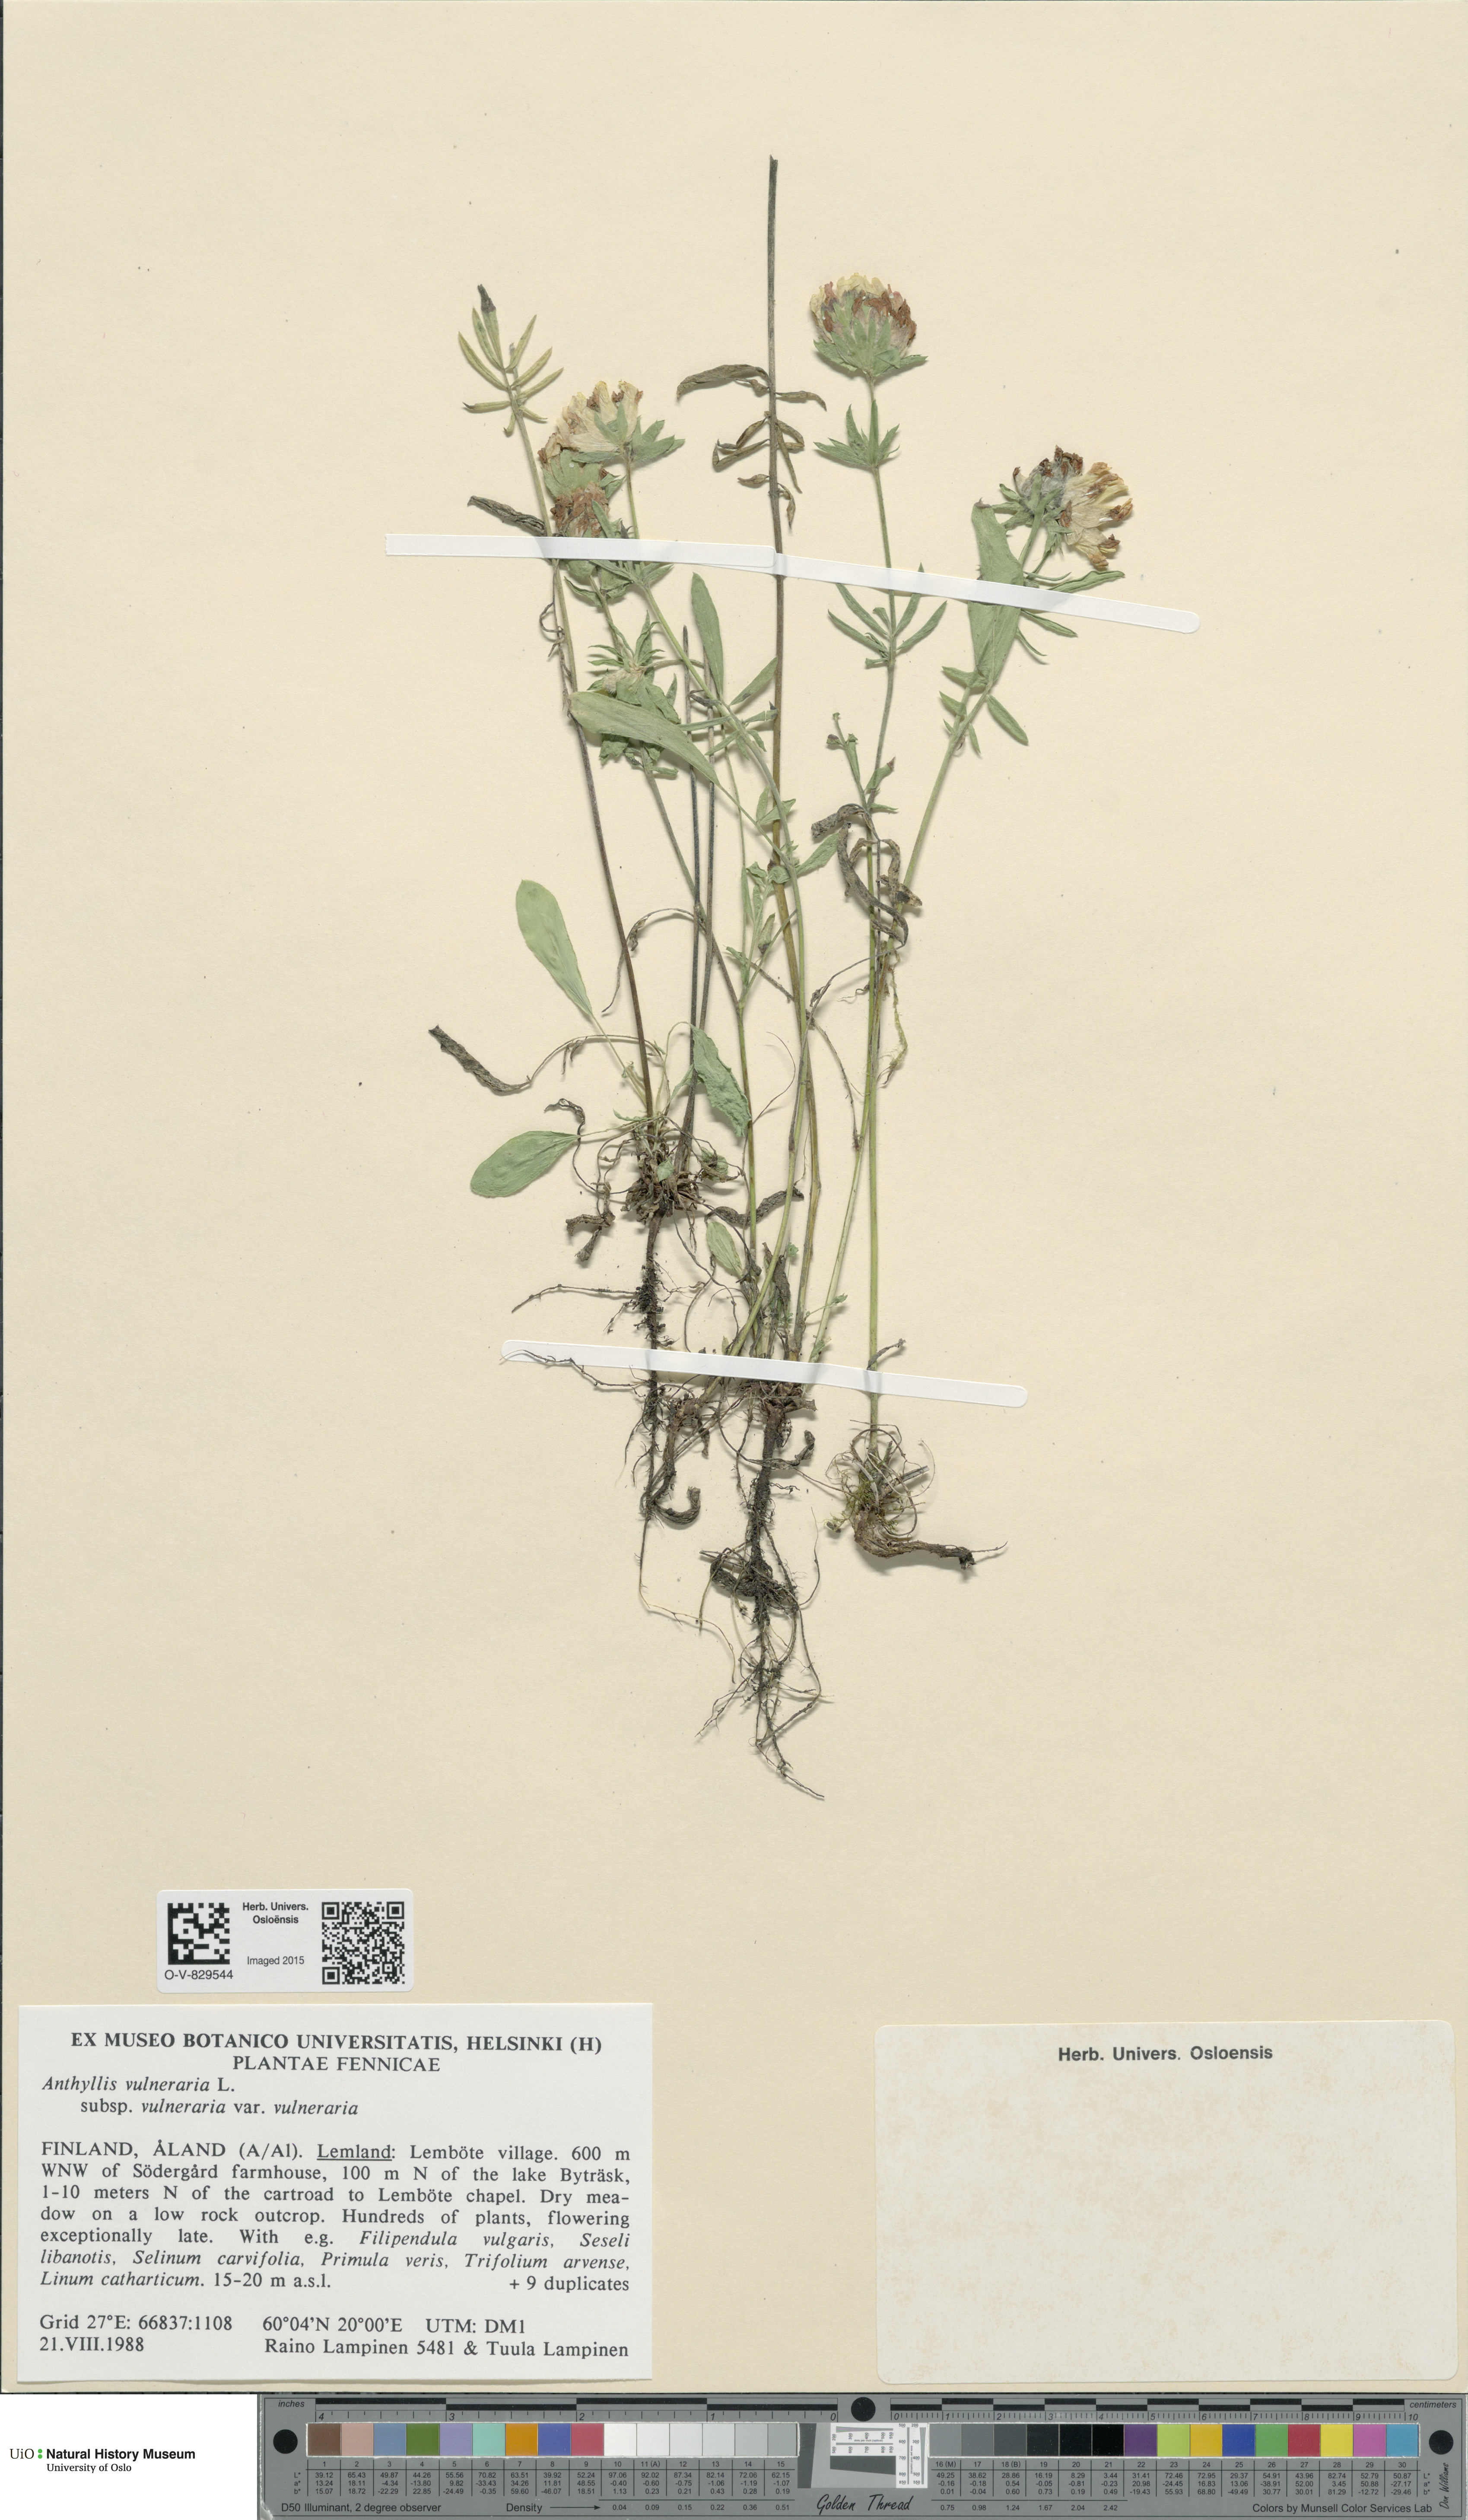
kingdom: Plantae
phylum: Tracheophyta
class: Magnoliopsida
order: Fabales
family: Fabaceae
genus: Anthyllis
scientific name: Anthyllis vulneraria
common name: Kidney vetch
